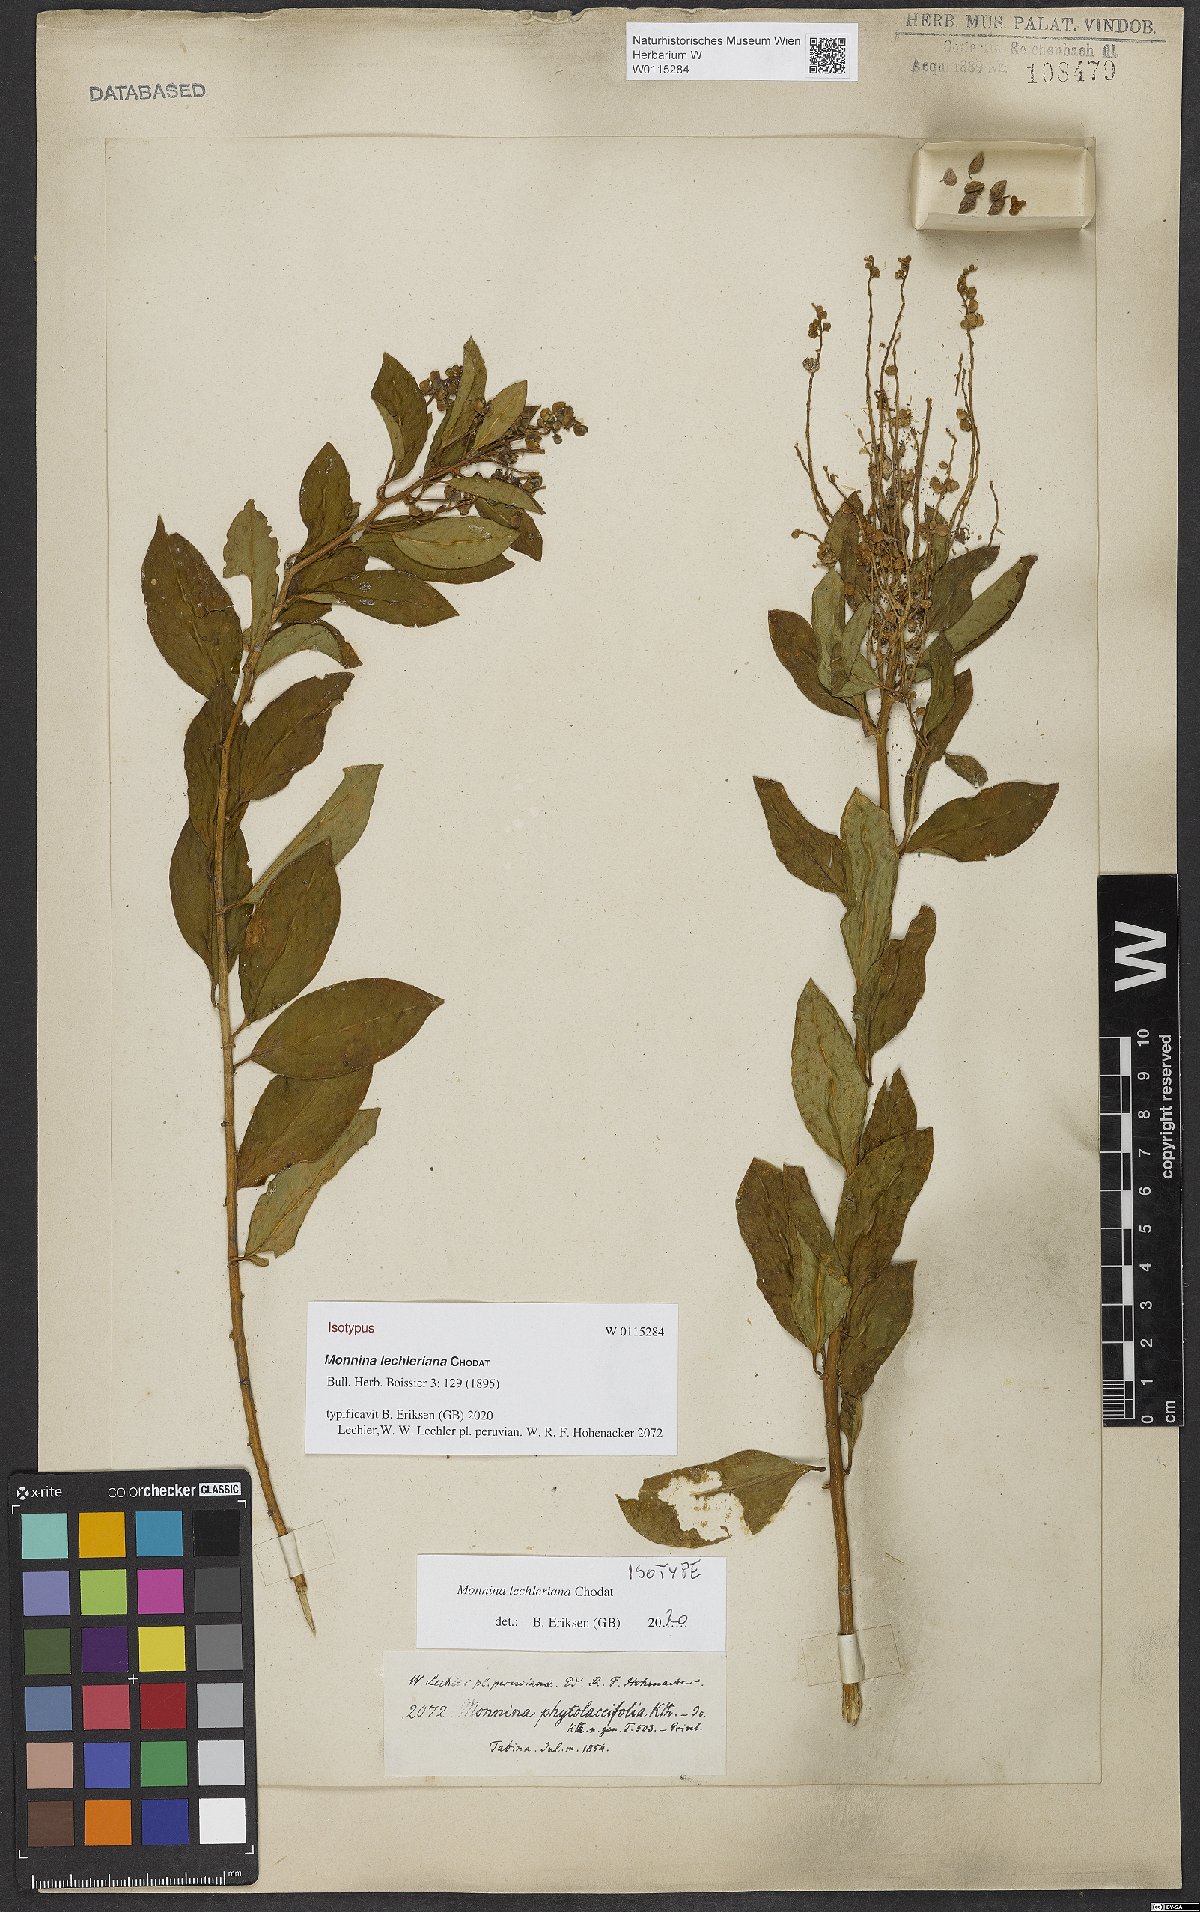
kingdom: Plantae
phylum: Tracheophyta
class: Magnoliopsida
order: Fabales
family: Polygalaceae
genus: Monnina
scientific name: Monnina lechleriana
